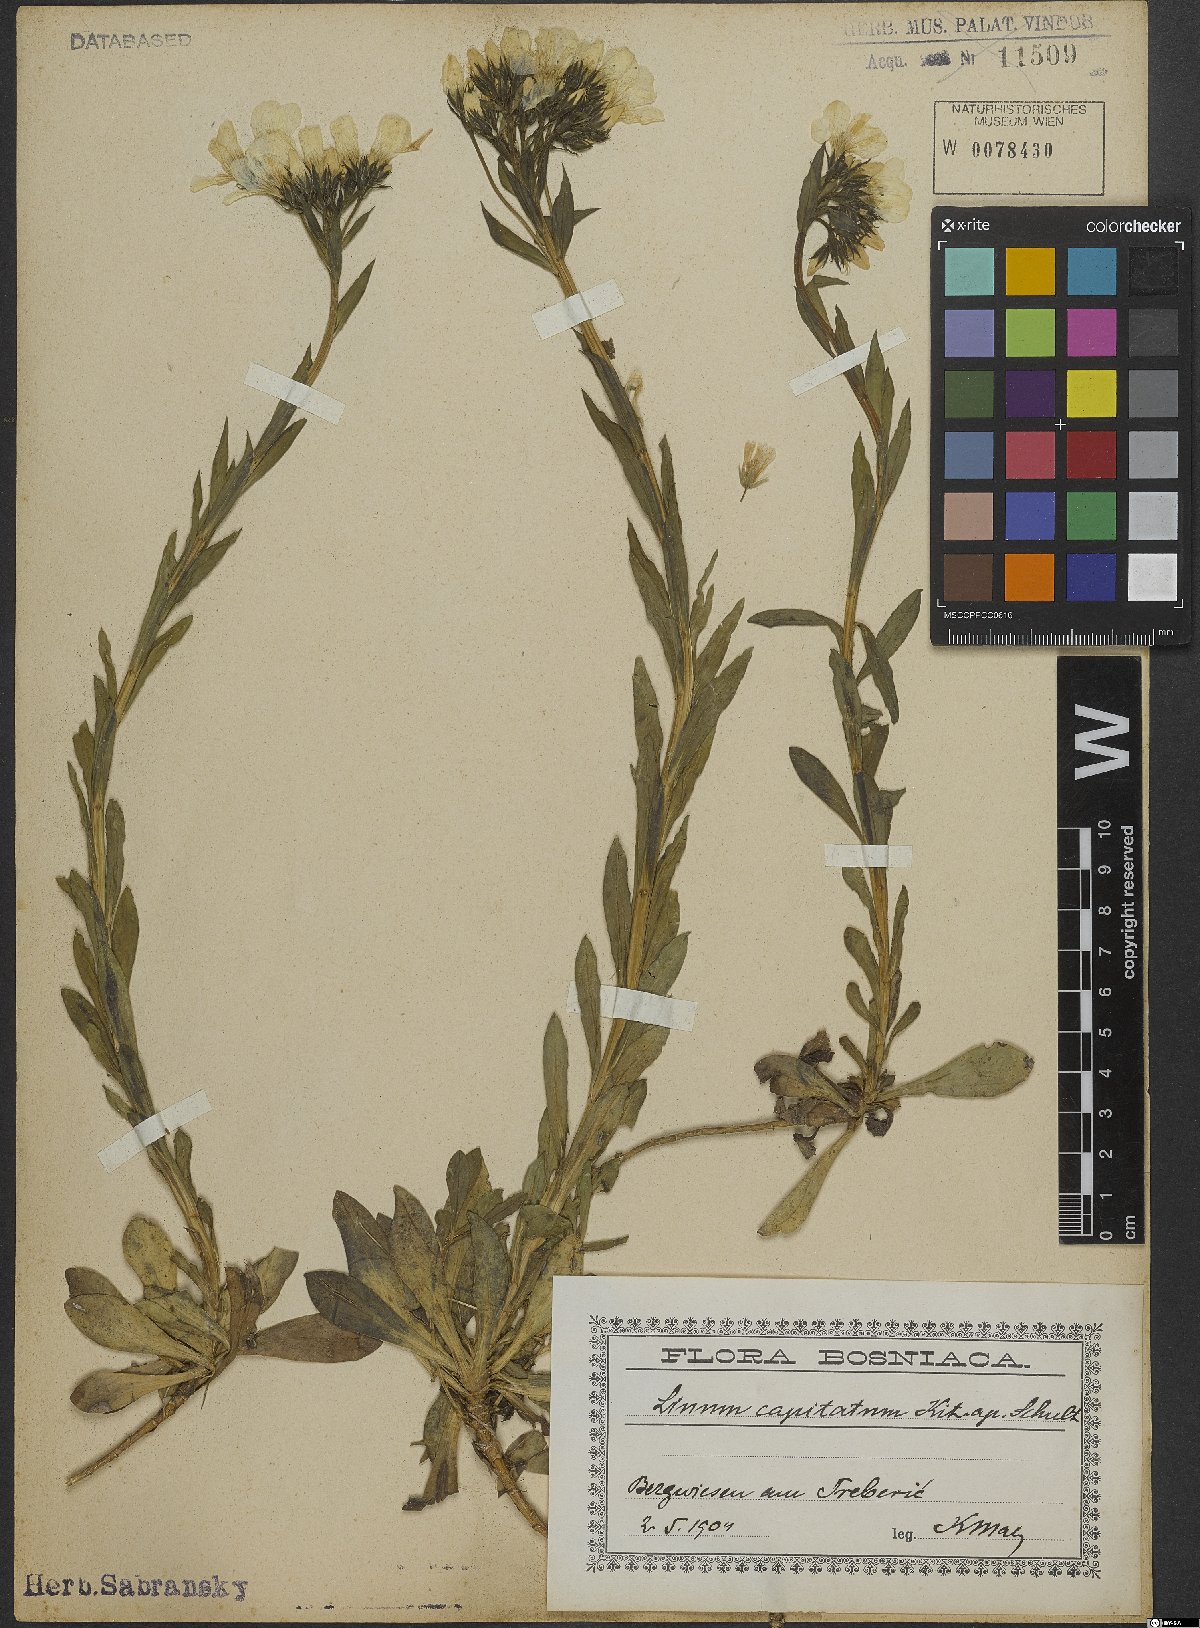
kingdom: Plantae
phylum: Tracheophyta
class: Magnoliopsida
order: Malpighiales
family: Linaceae
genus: Linum
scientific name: Linum capitatum
